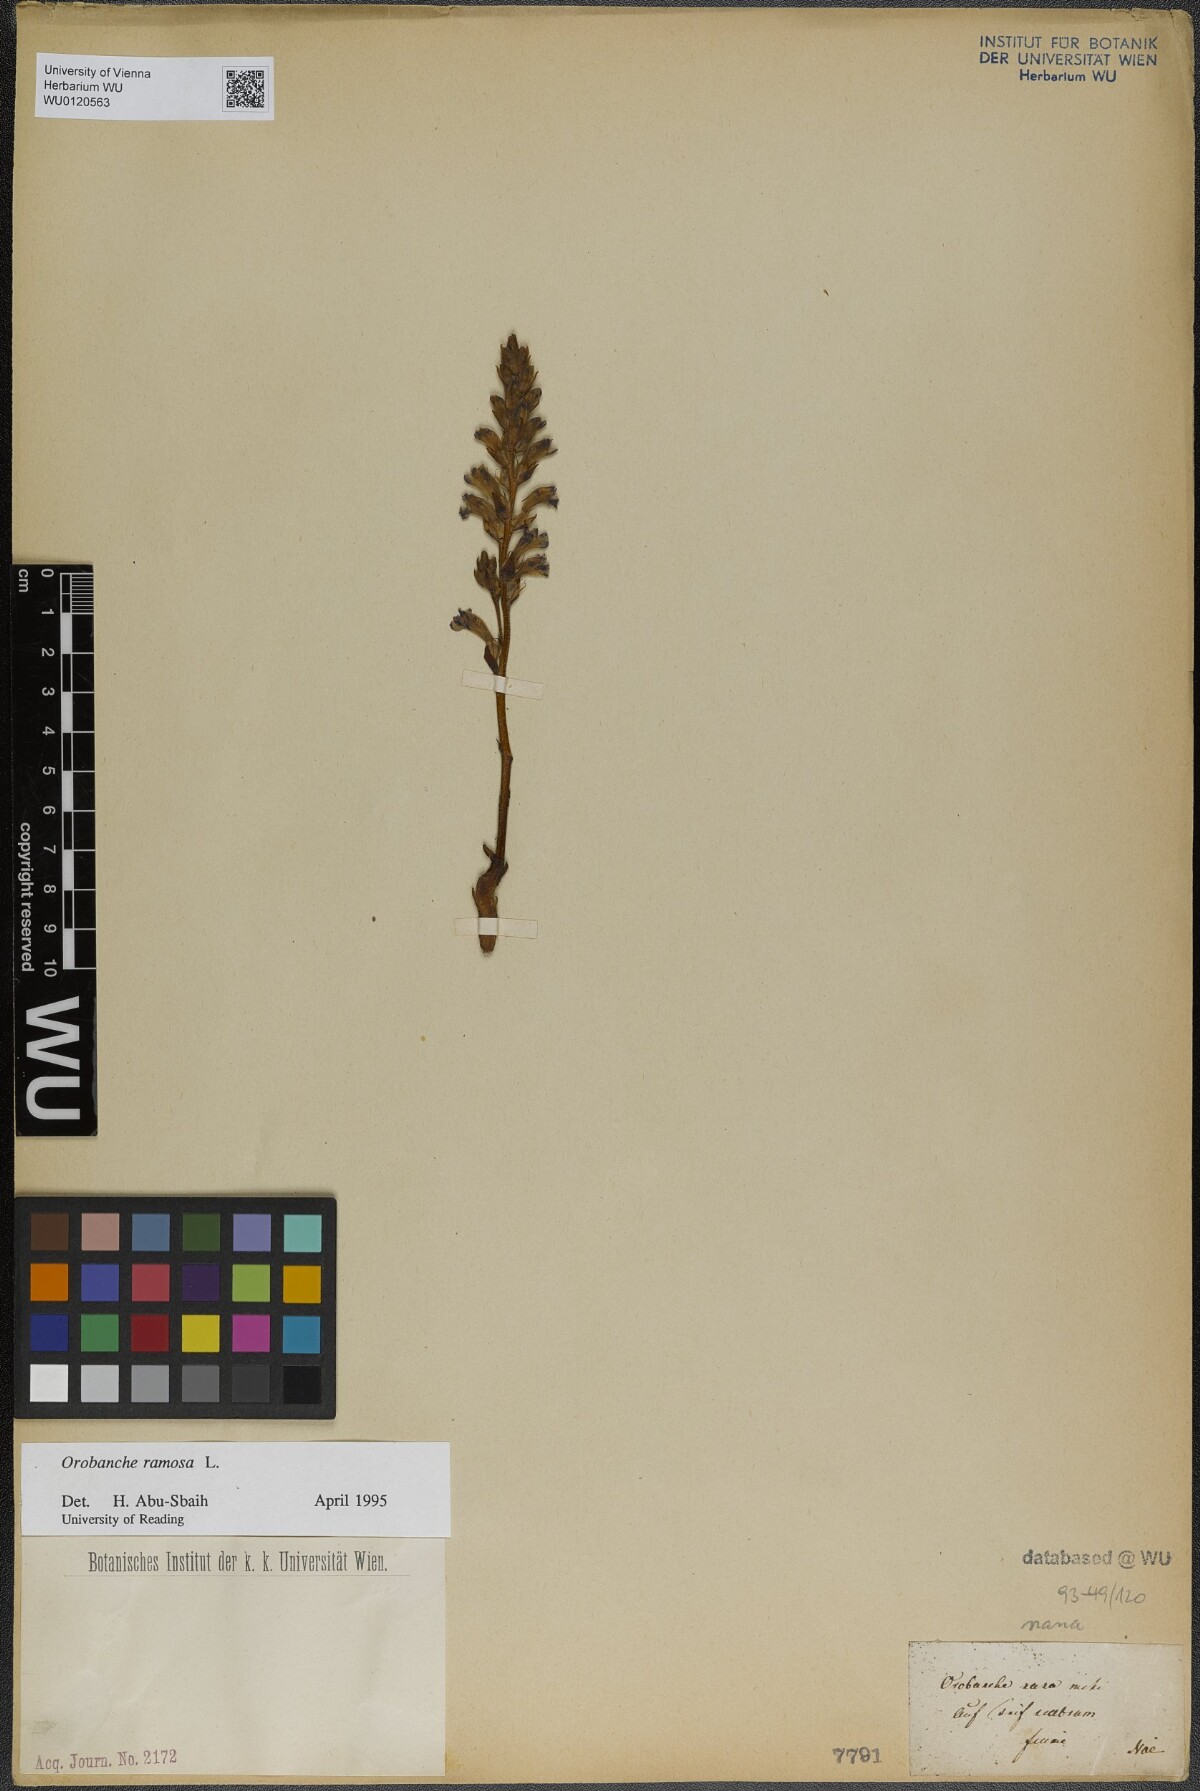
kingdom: Plantae
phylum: Tracheophyta
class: Magnoliopsida
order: Lamiales
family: Orobanchaceae
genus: Phelipanche
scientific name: Phelipanche ramosa
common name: Branched broomrape
